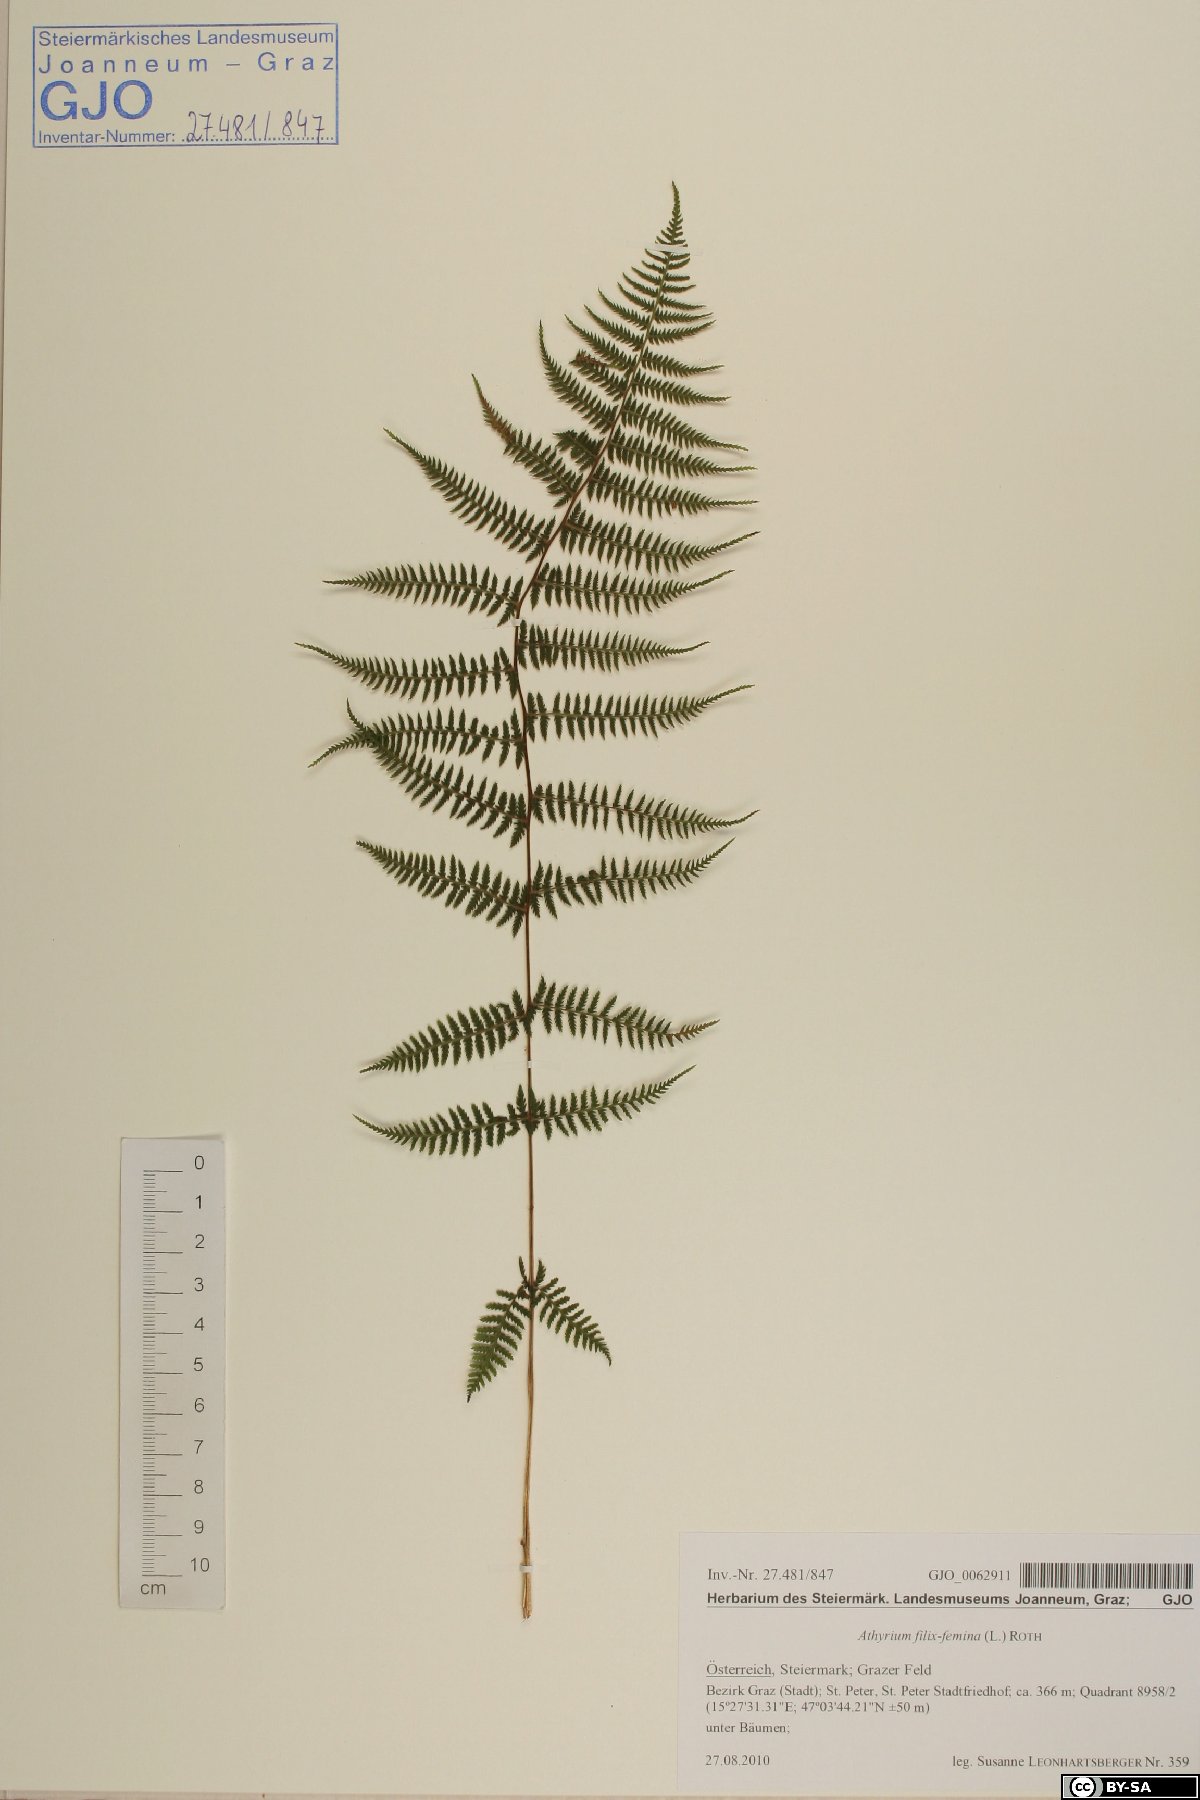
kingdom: Plantae
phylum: Tracheophyta
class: Polypodiopsida
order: Polypodiales
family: Athyriaceae
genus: Athyrium
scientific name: Athyrium filix-femina
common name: Lady fern
